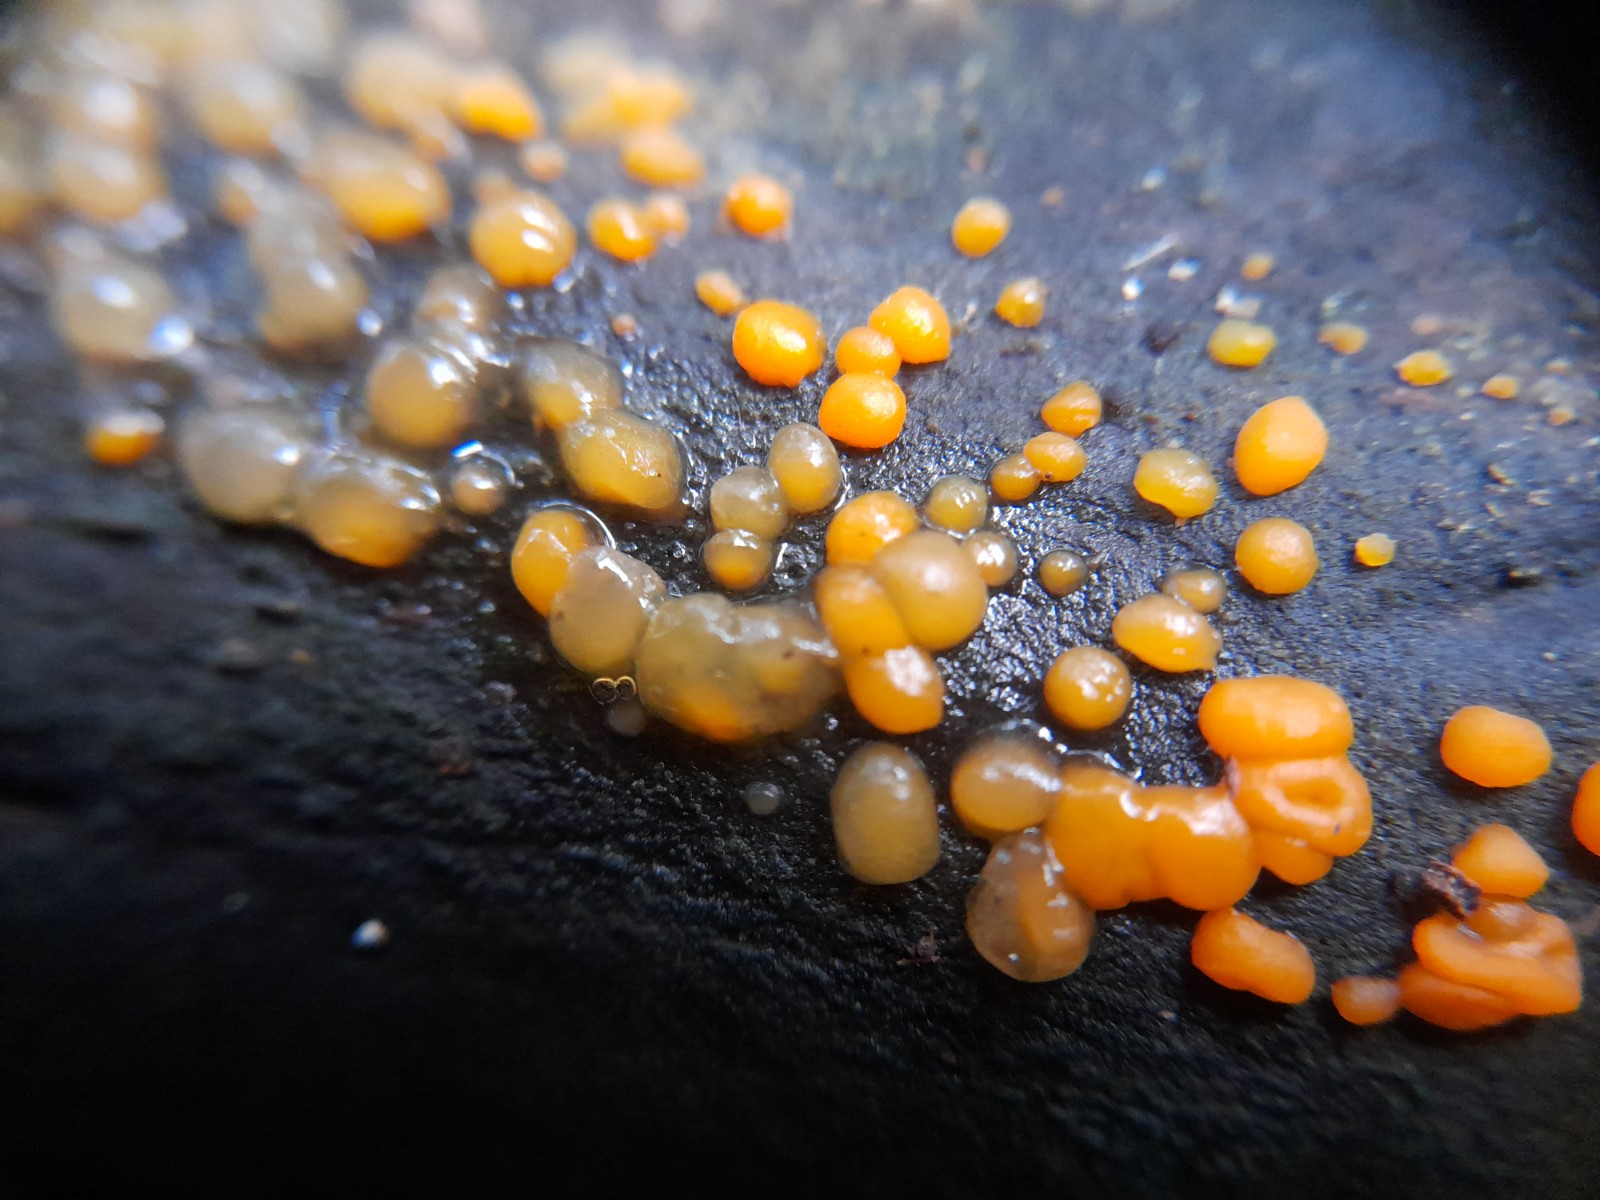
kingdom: Fungi
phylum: Basidiomycota
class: Dacrymycetes
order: Dacrymycetales
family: Dacrymycetaceae
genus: Dacrymyces
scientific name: Dacrymyces stillatus
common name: almindelig tåresvamp
